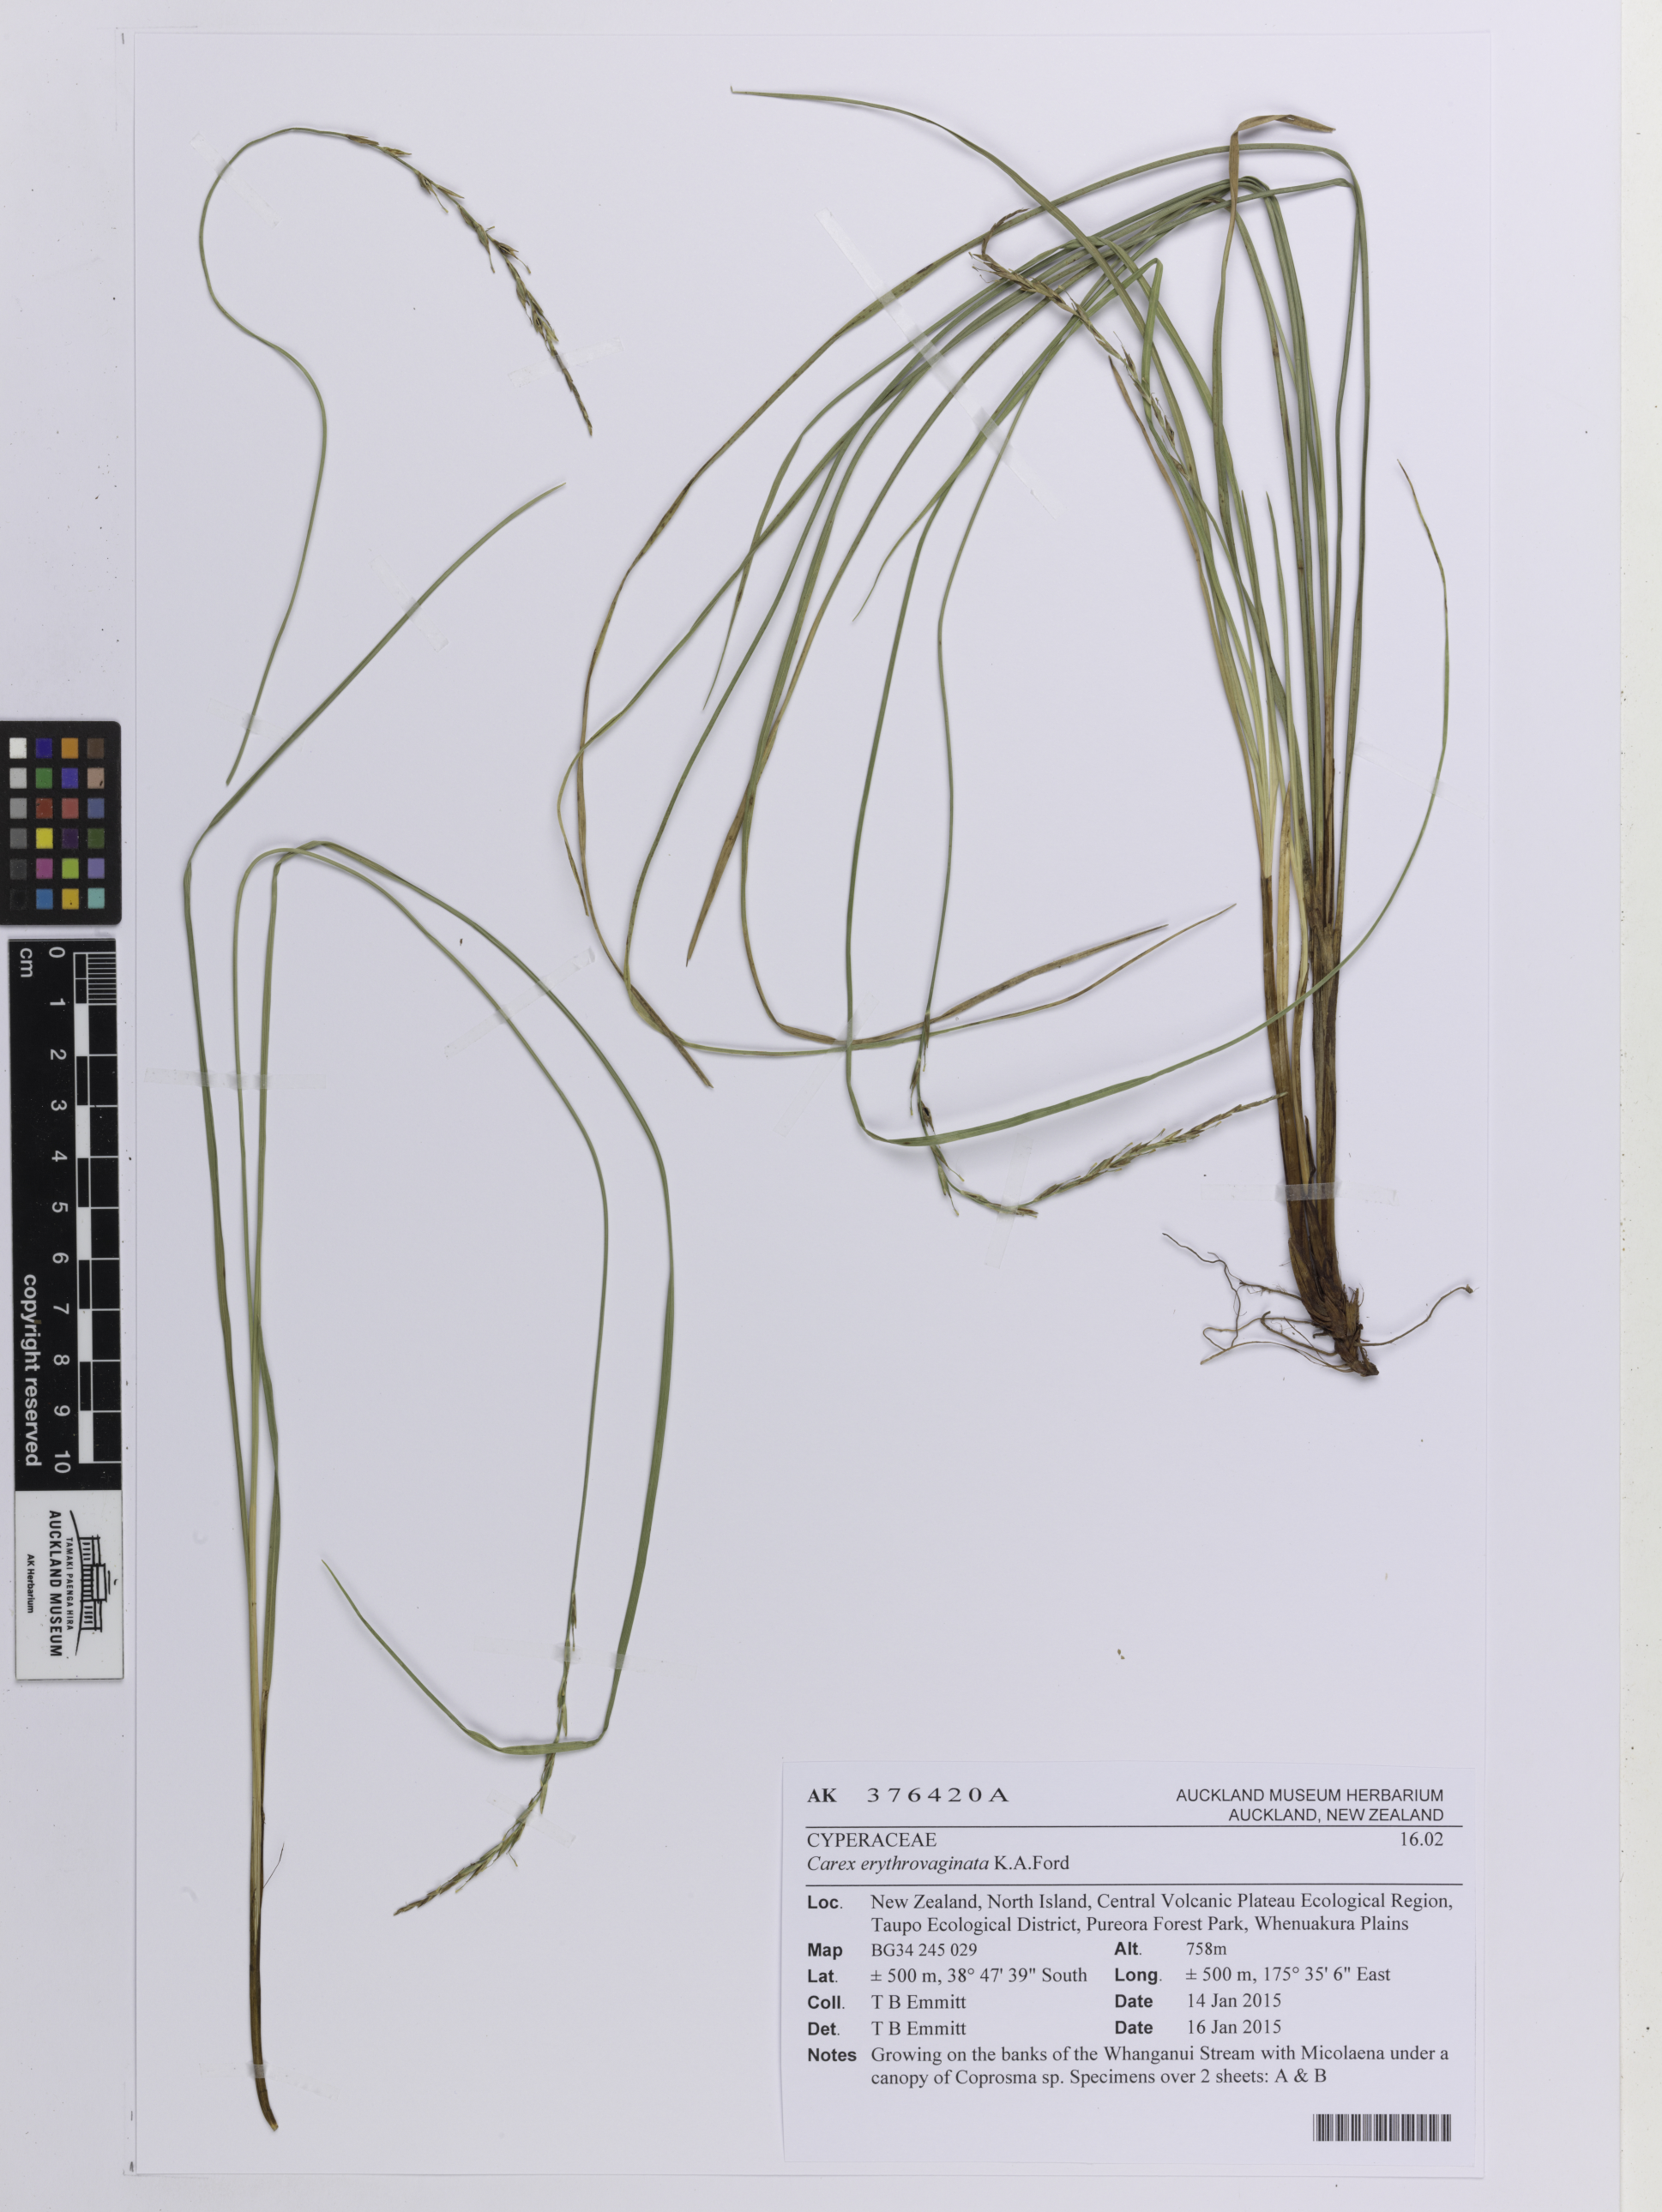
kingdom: Plantae
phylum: Tracheophyta
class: Liliopsida
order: Poales
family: Cyperaceae
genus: Carex
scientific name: Carex erythrovaginata
